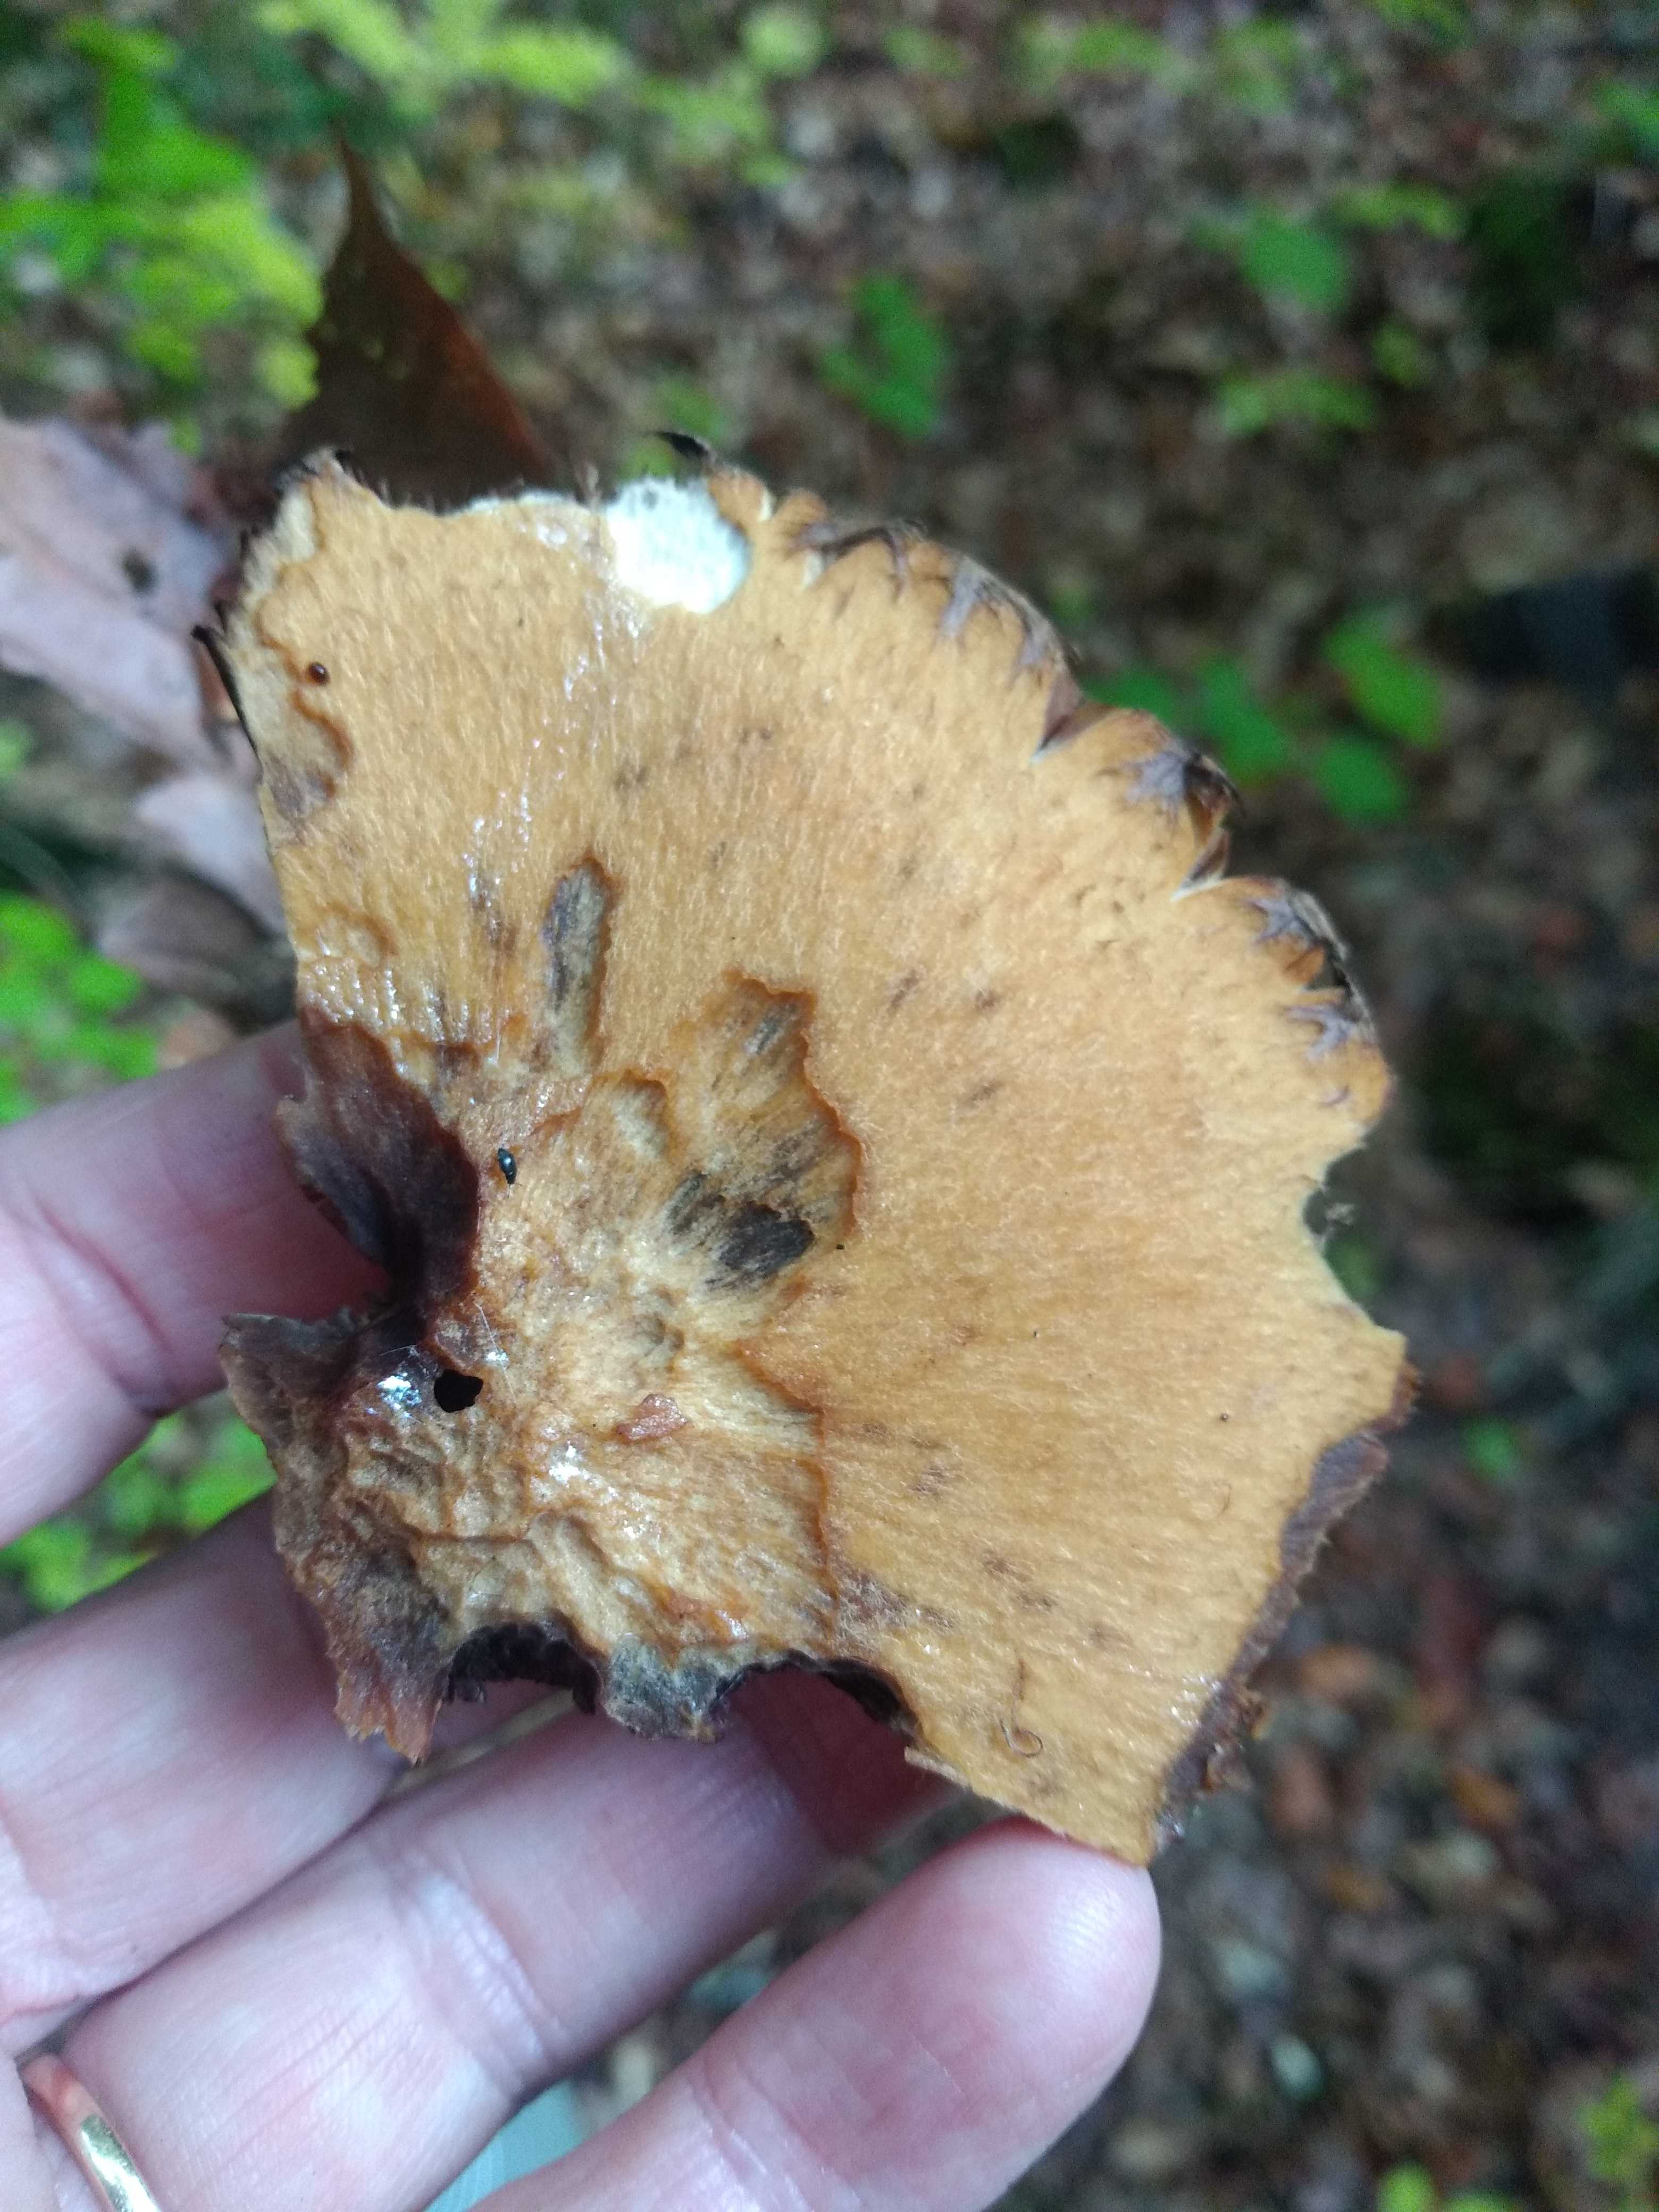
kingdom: Fungi
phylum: Basidiomycota
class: Agaricomycetes
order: Agaricales
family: Psathyrellaceae
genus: Lacrymaria
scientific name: Lacrymaria
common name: mørkhat
